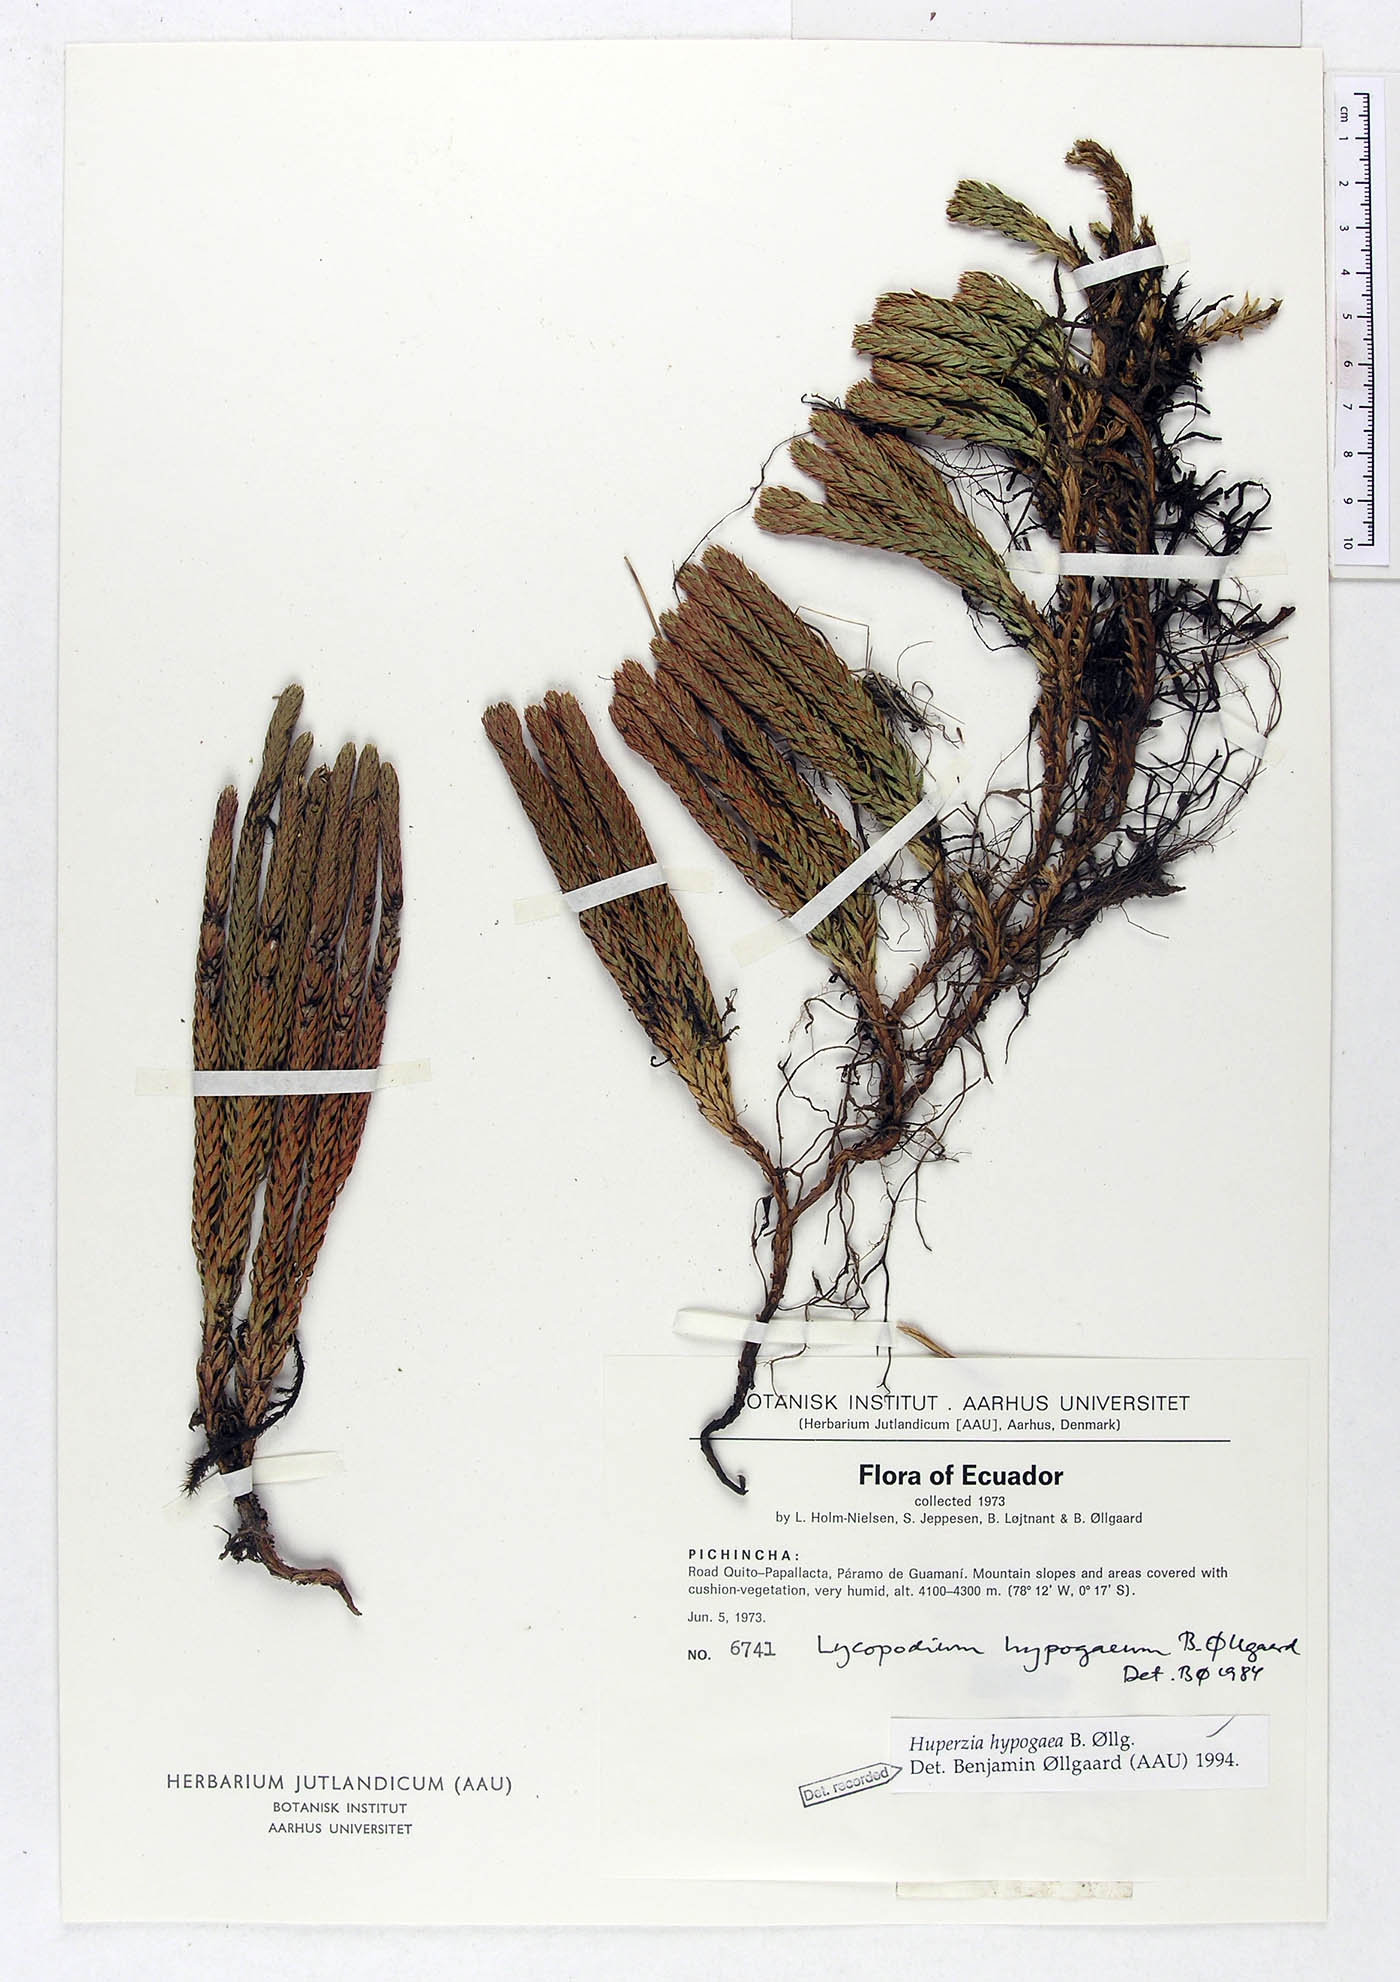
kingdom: Plantae
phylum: Tracheophyta
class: Lycopodiopsida
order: Lycopodiales
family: Lycopodiaceae
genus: Phlegmariurus
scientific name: Phlegmariurus hypogaeus
